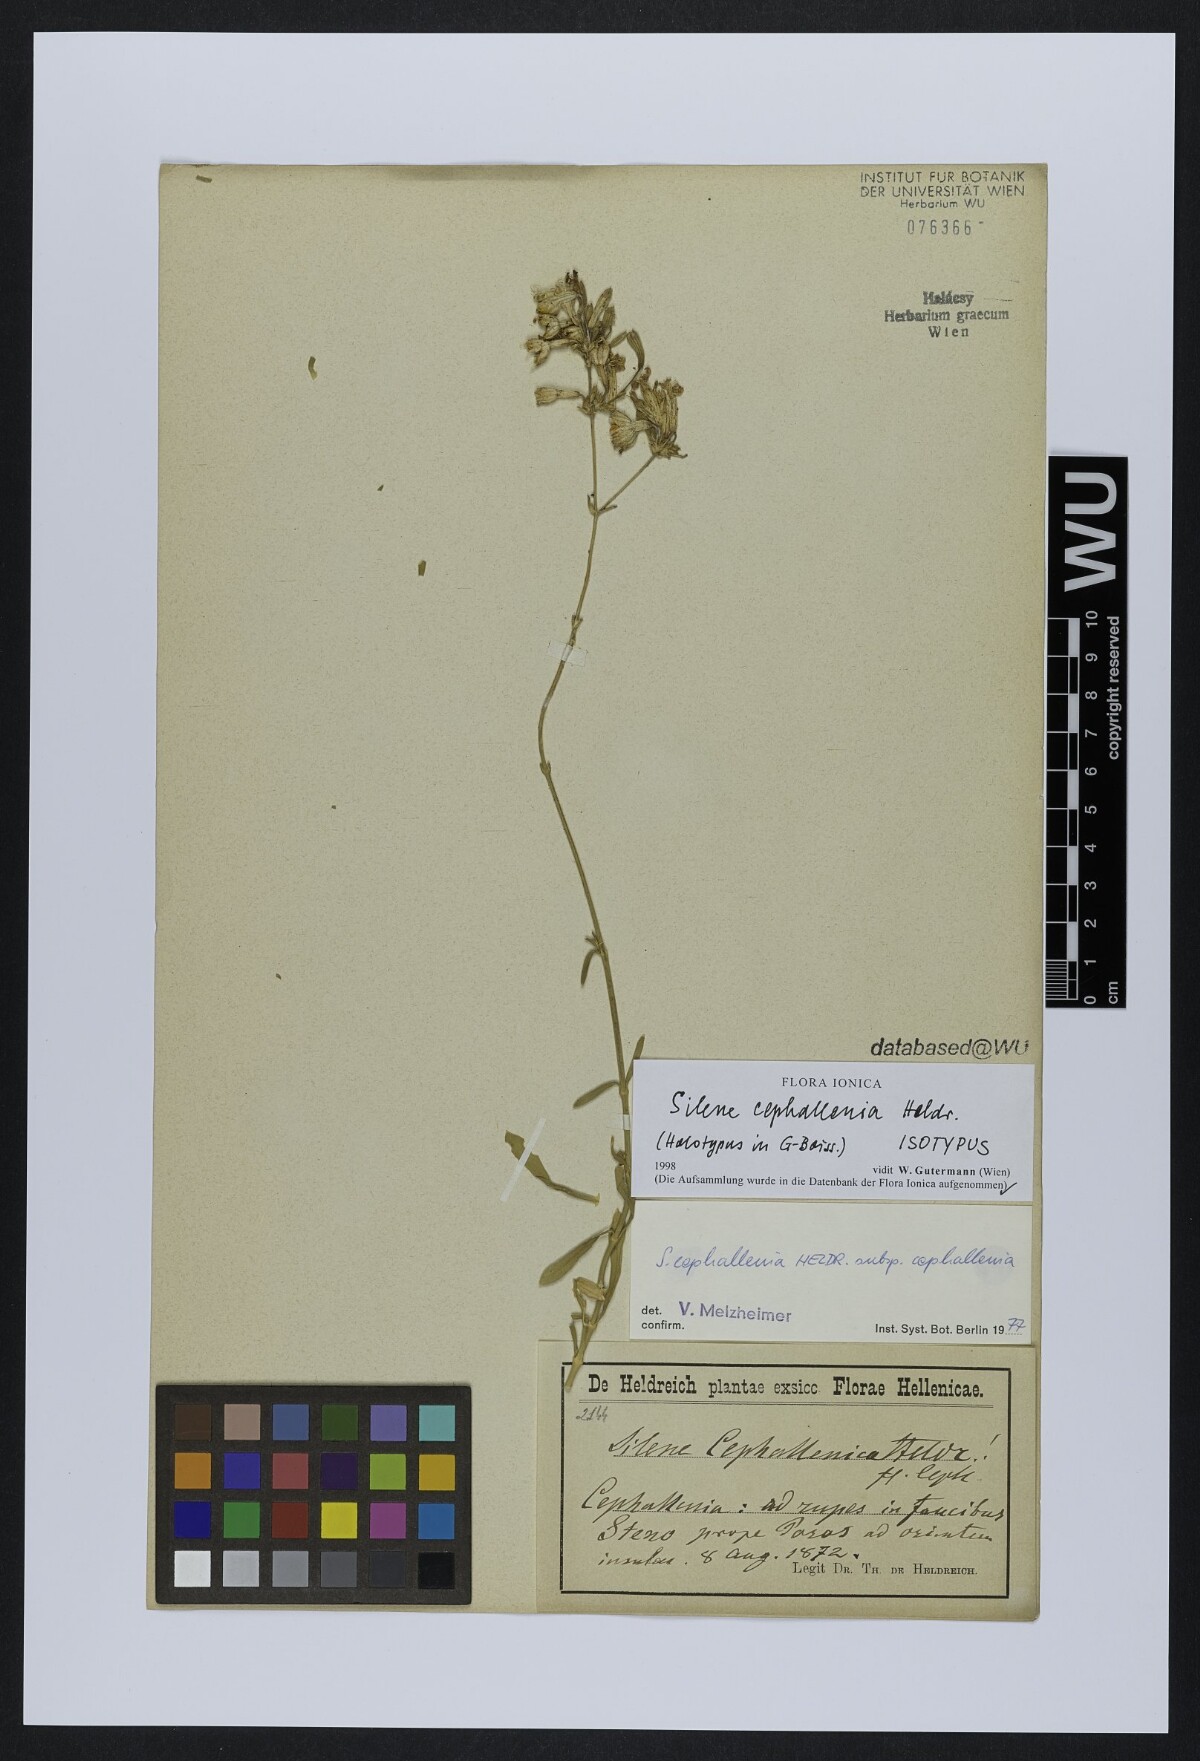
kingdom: Plantae
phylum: Tracheophyta
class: Magnoliopsida
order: Caryophyllales
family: Caryophyllaceae
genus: Silene
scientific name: Silene cephallenia
